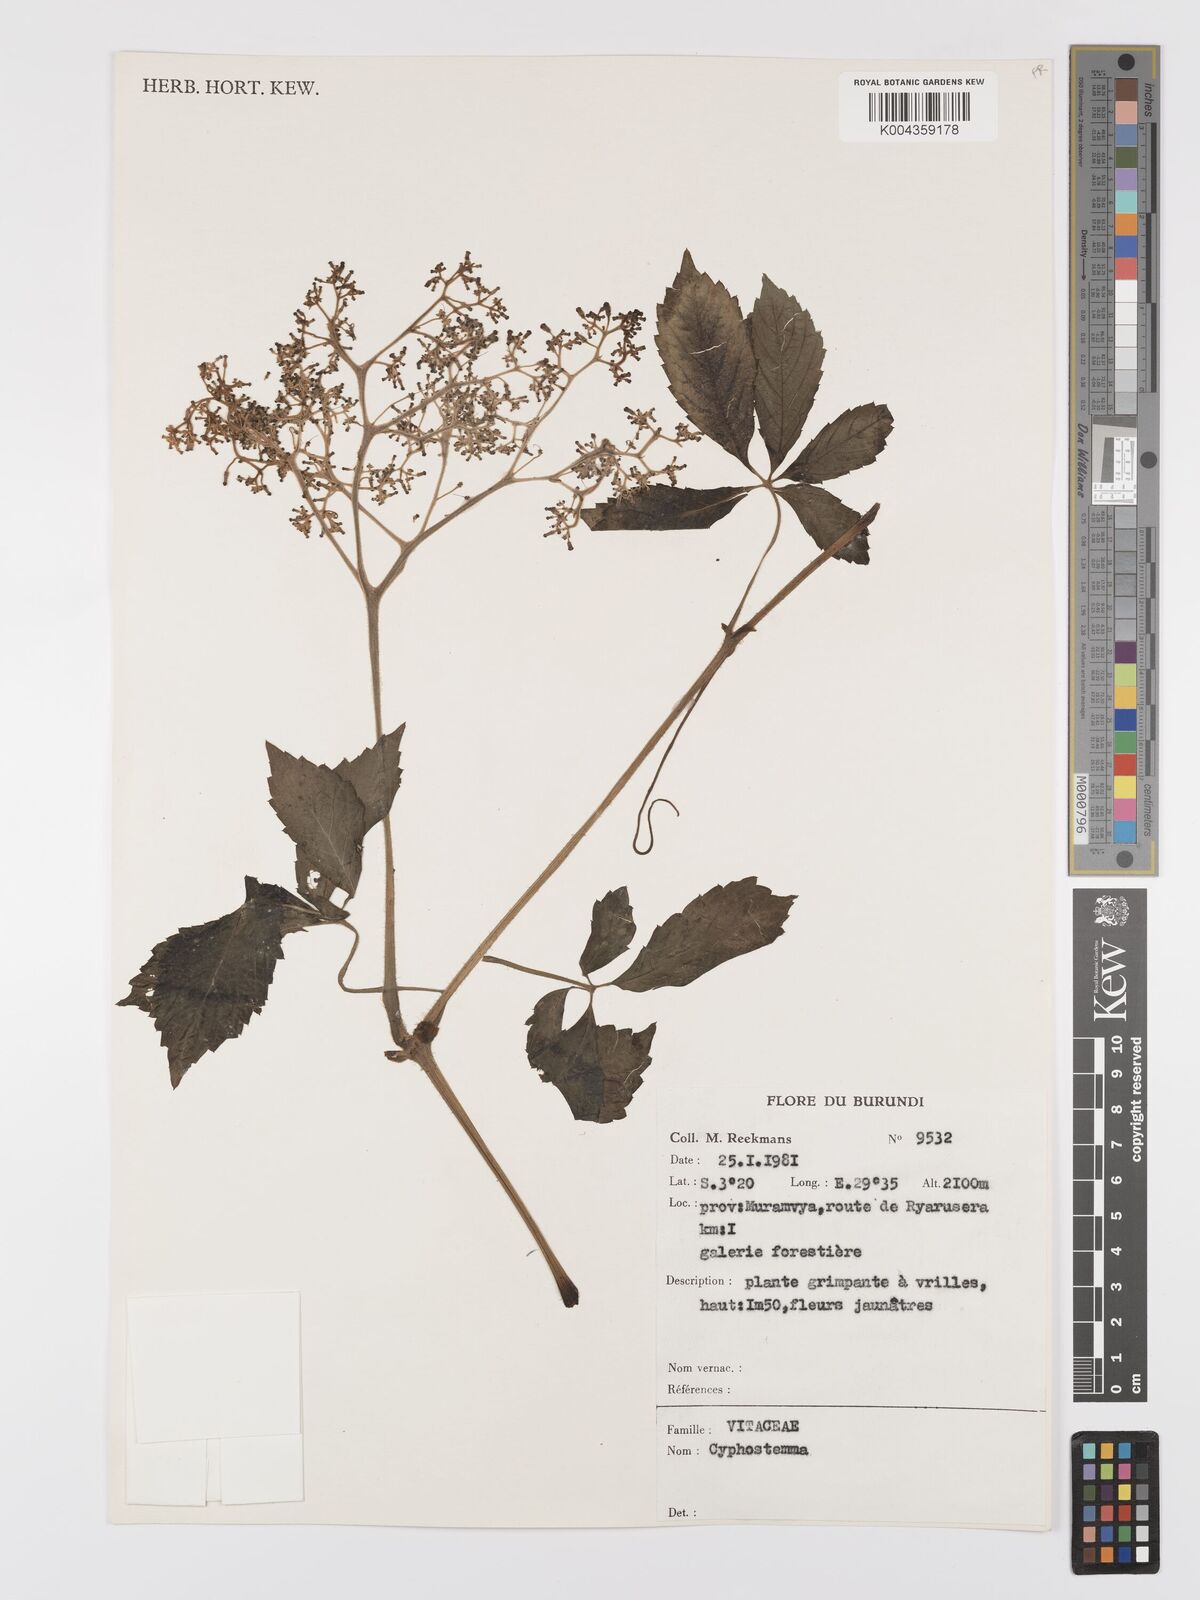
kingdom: Plantae
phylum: Tracheophyta
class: Magnoliopsida
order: Vitales
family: Vitaceae
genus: Cyphostemma
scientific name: Cyphostemma
